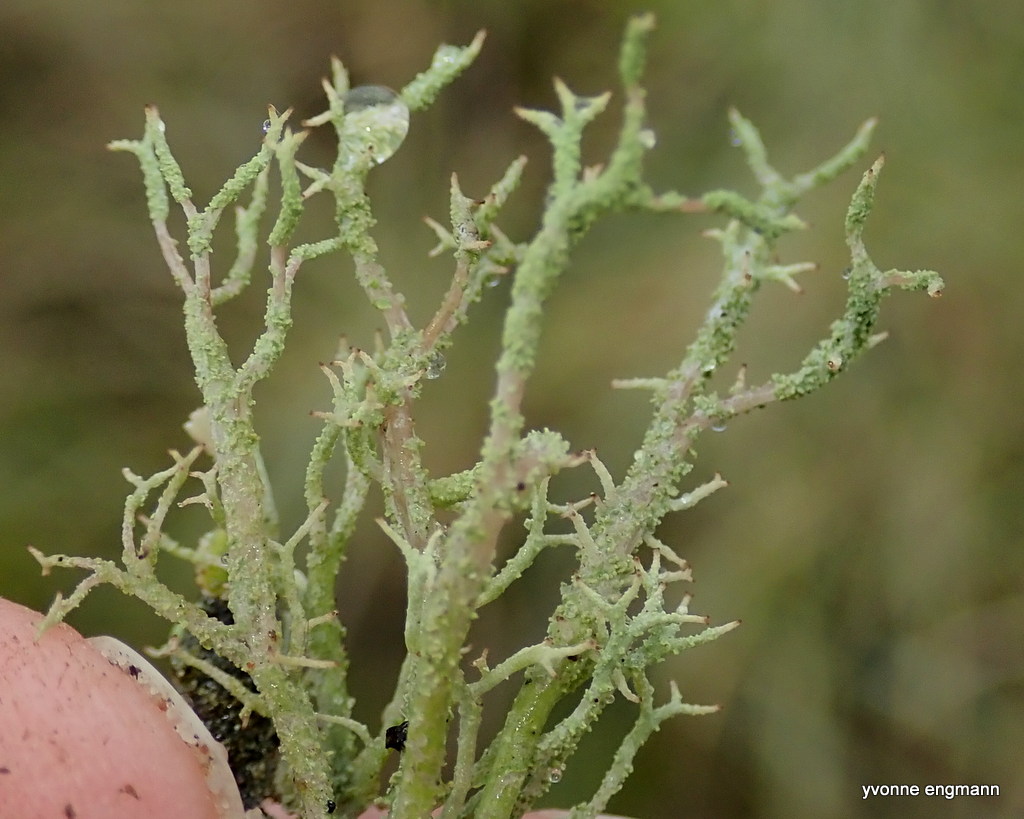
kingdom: Fungi
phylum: Ascomycota
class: Lecanoromycetes
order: Lecanorales
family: Cladoniaceae
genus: Cladonia
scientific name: Cladonia scabriuscula
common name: ru bægerlav
